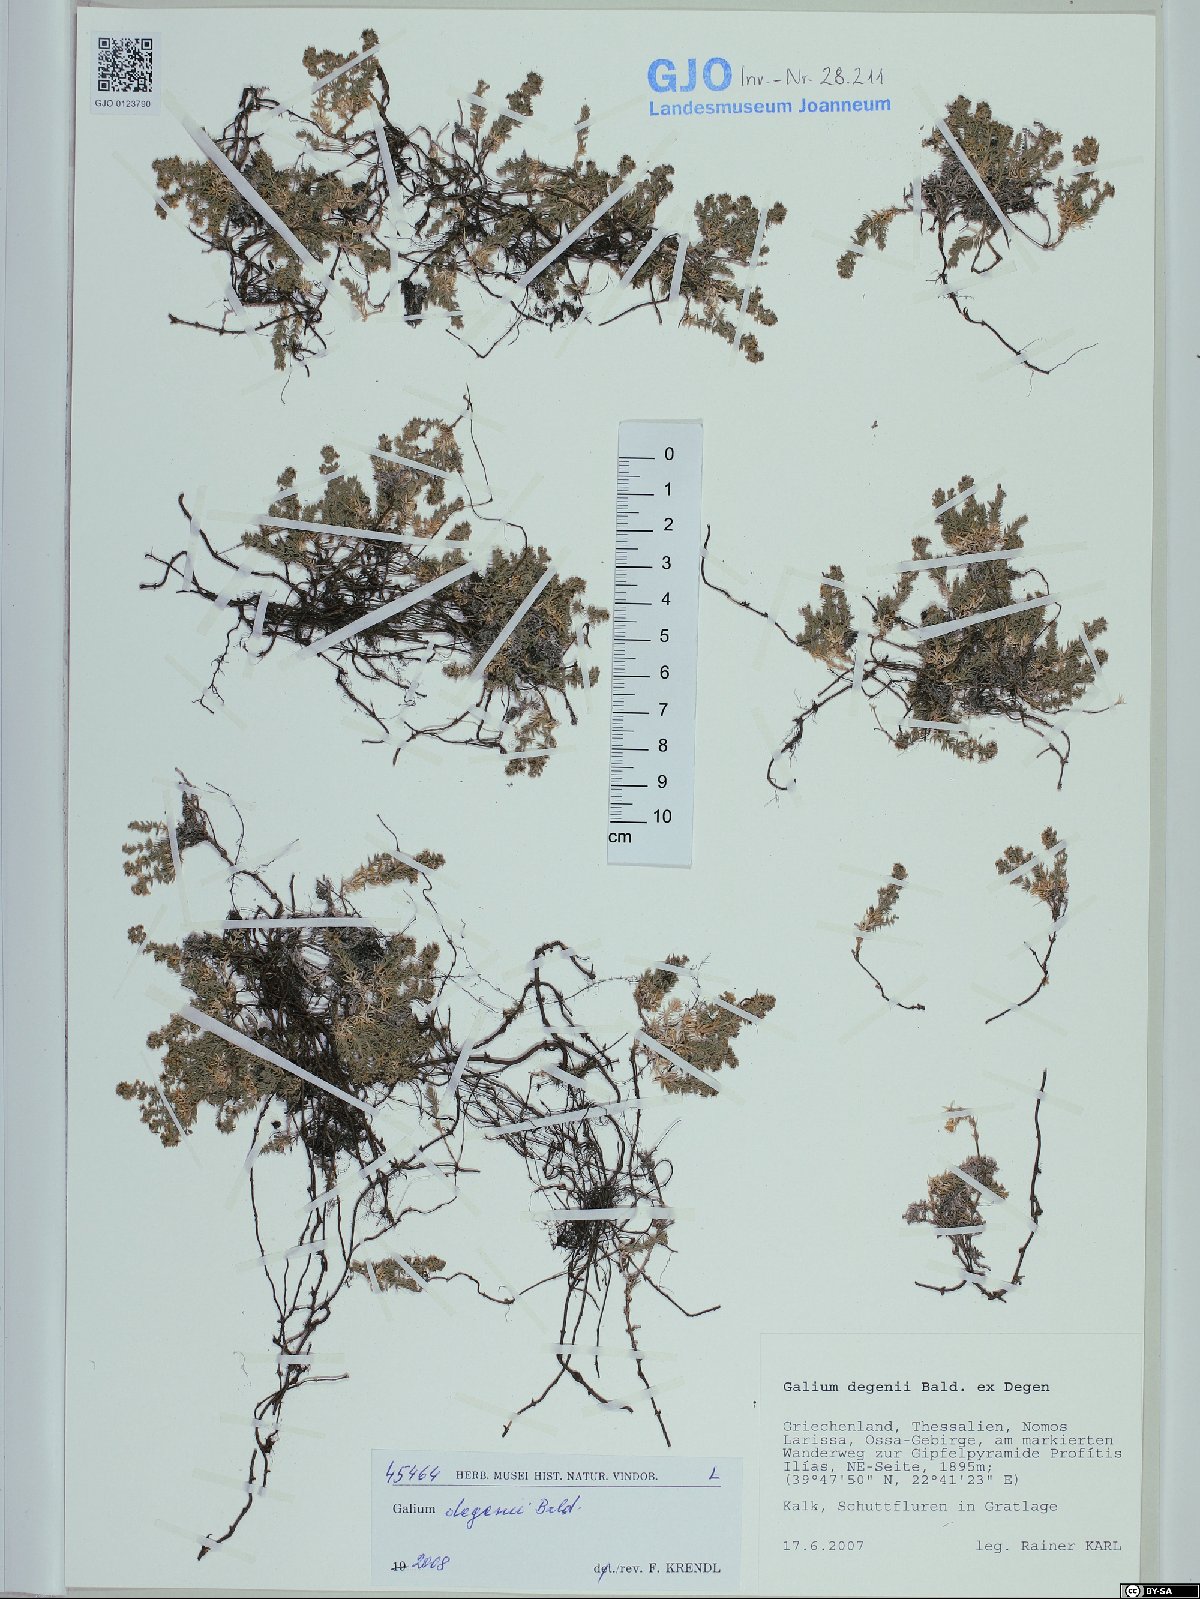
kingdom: Plantae
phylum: Tracheophyta
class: Magnoliopsida
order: Gentianales
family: Rubiaceae
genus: Galium
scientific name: Galium degenii
